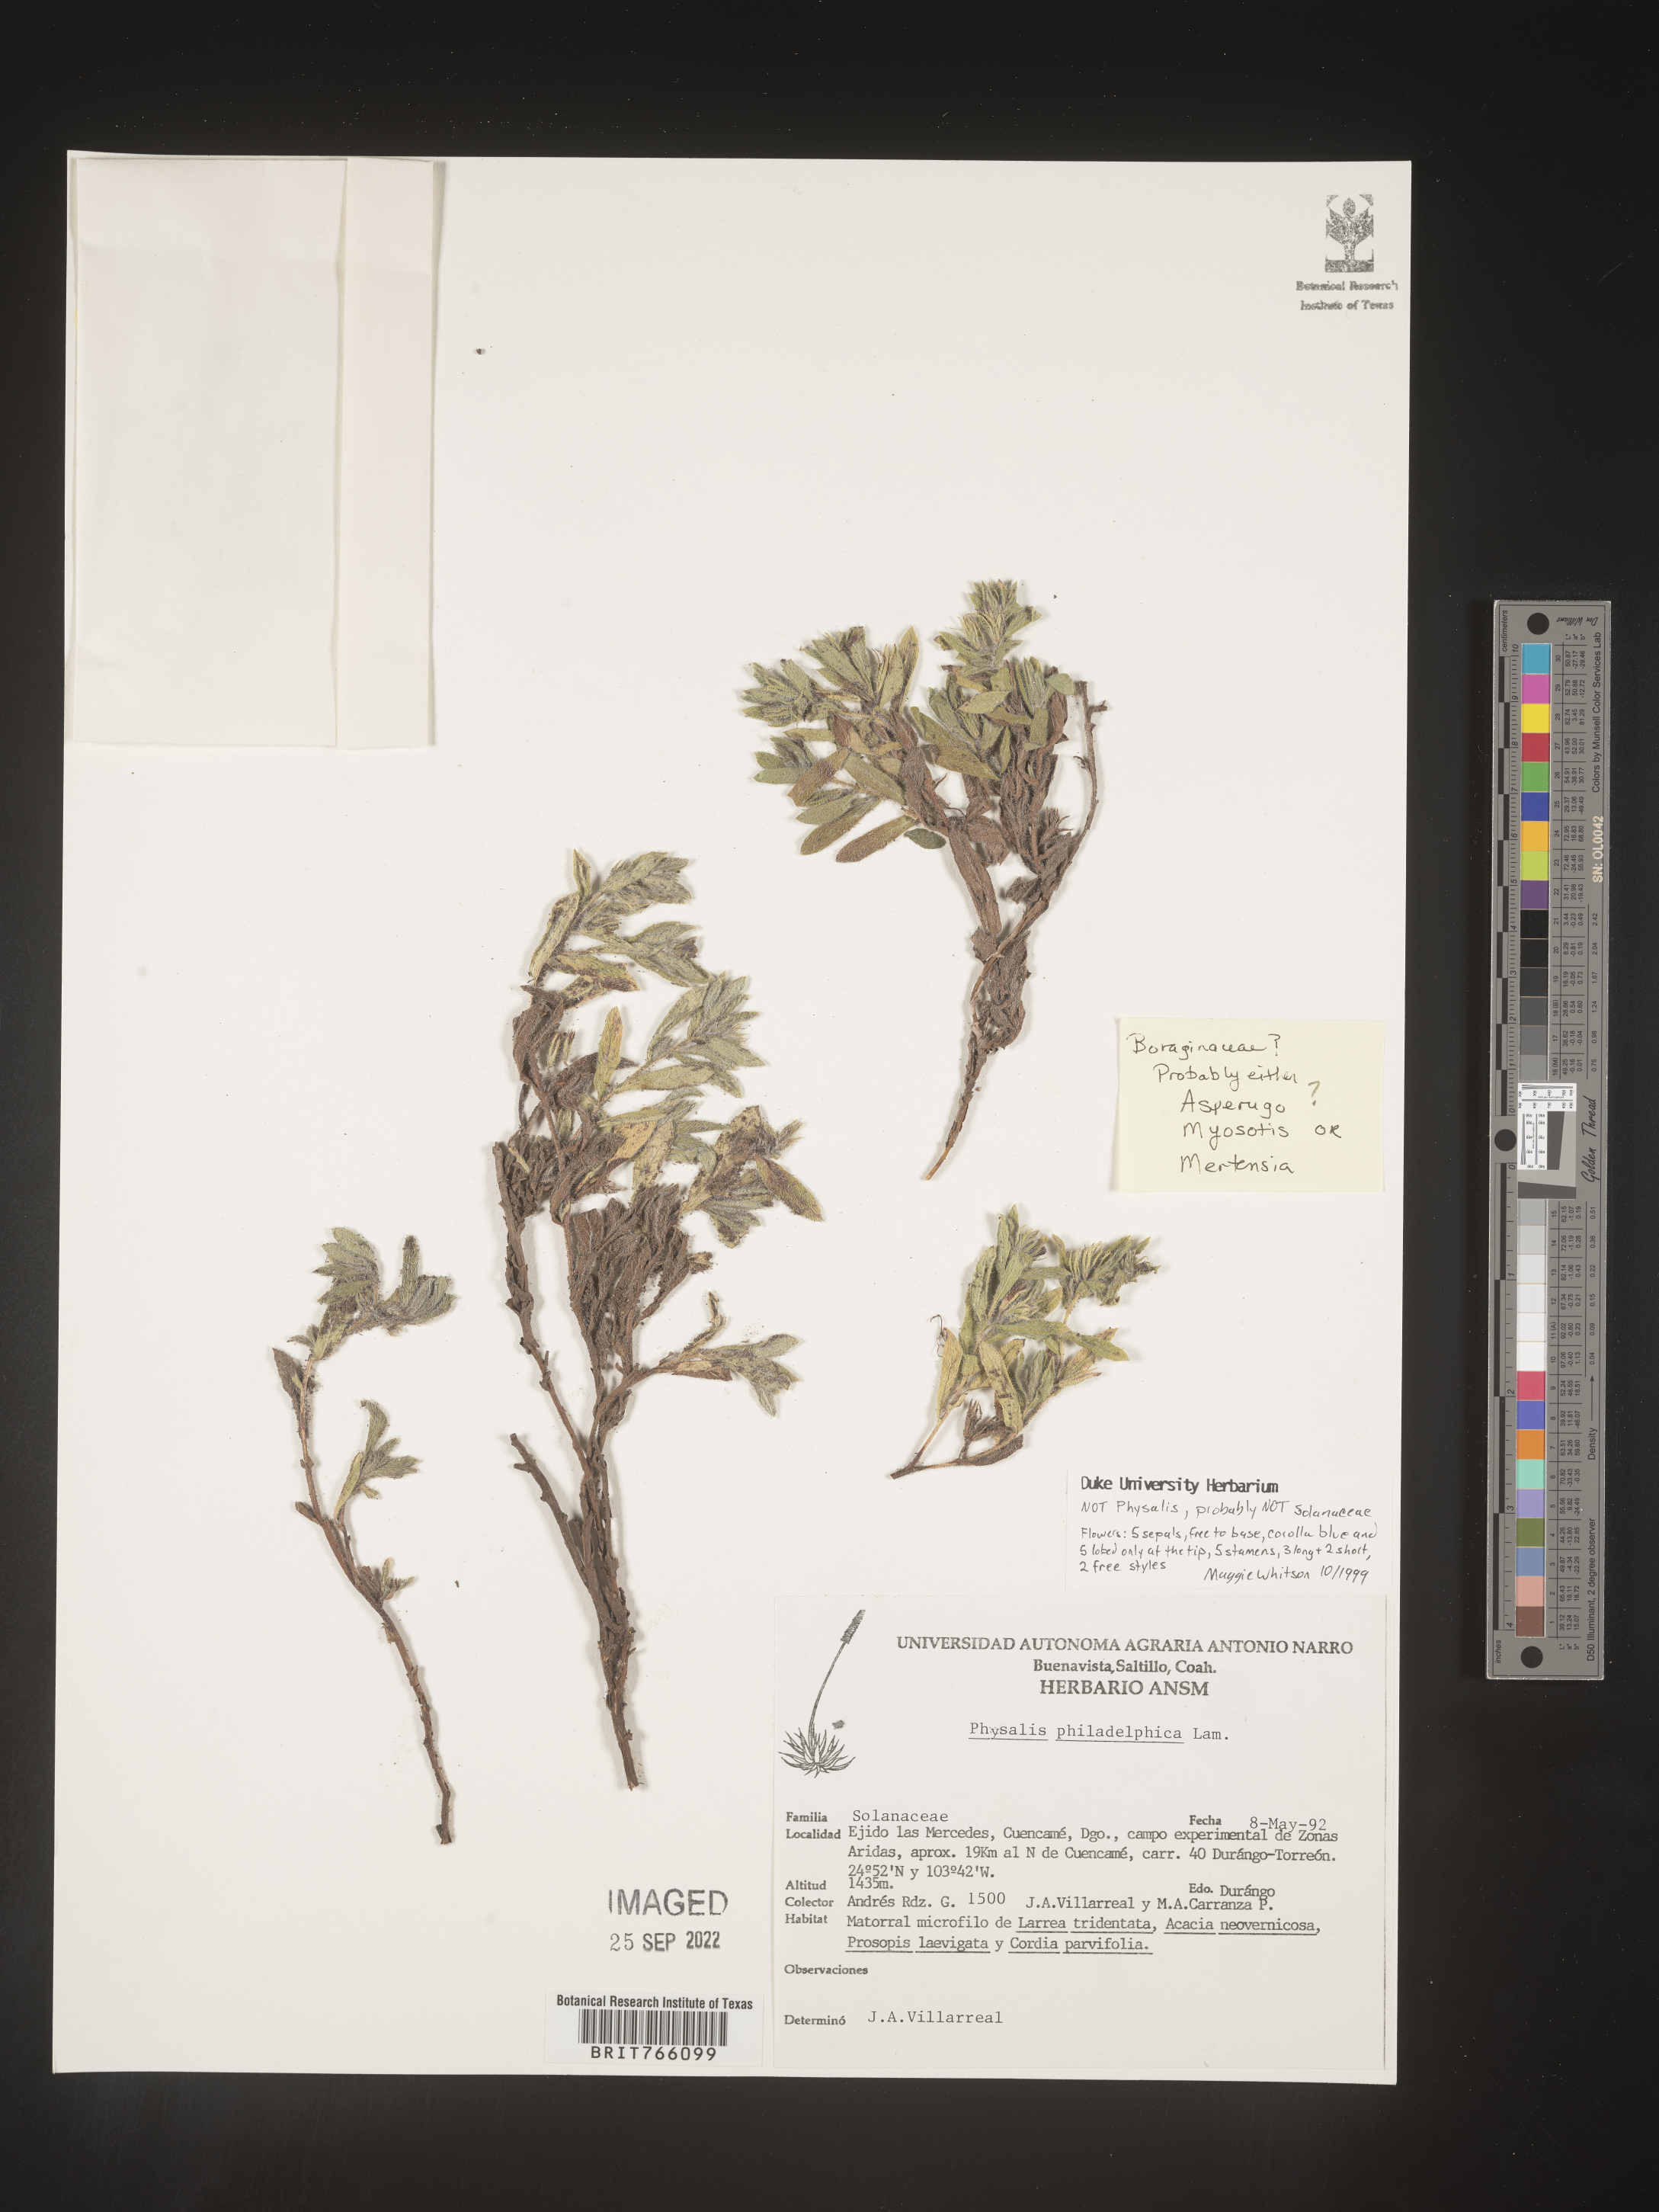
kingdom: Plantae
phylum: Tracheophyta
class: Magnoliopsida
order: Boraginales
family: Boraginaceae
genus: Asperugo
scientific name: Asperugo
